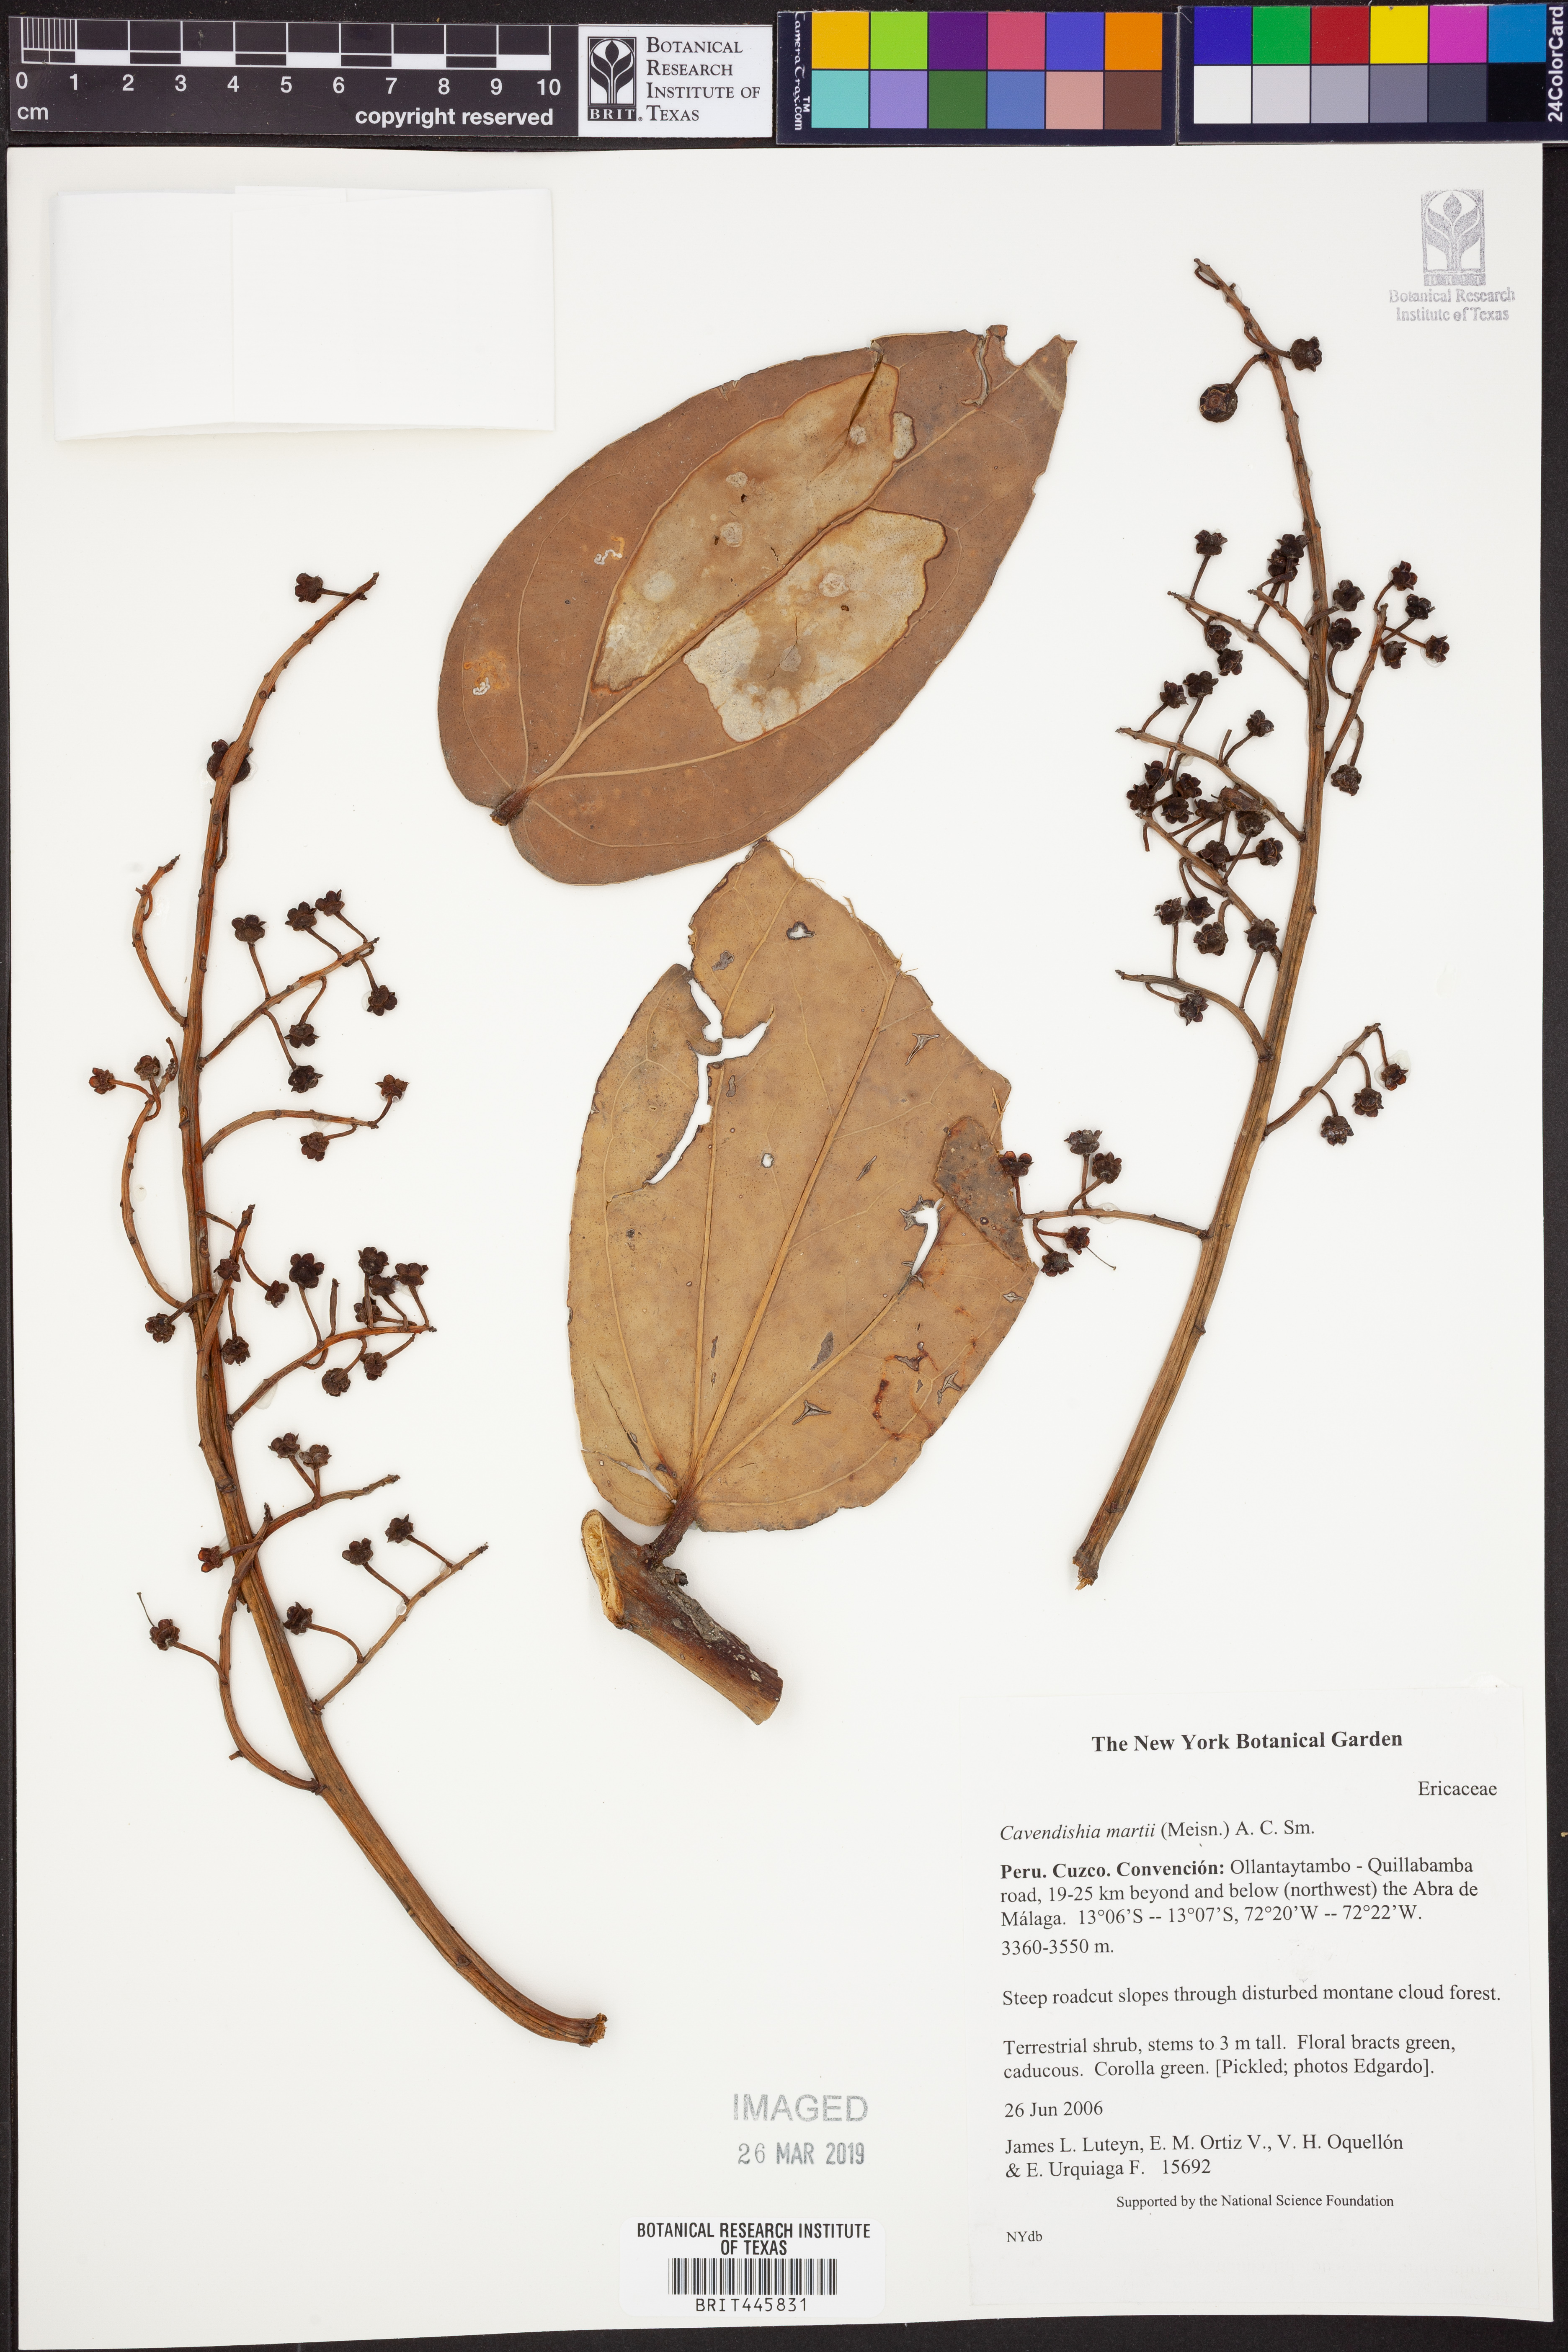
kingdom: Plantae
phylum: Tracheophyta
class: Magnoliopsida
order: Ericales
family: Ericaceae
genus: Cavendishia
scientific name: Cavendishia martii
